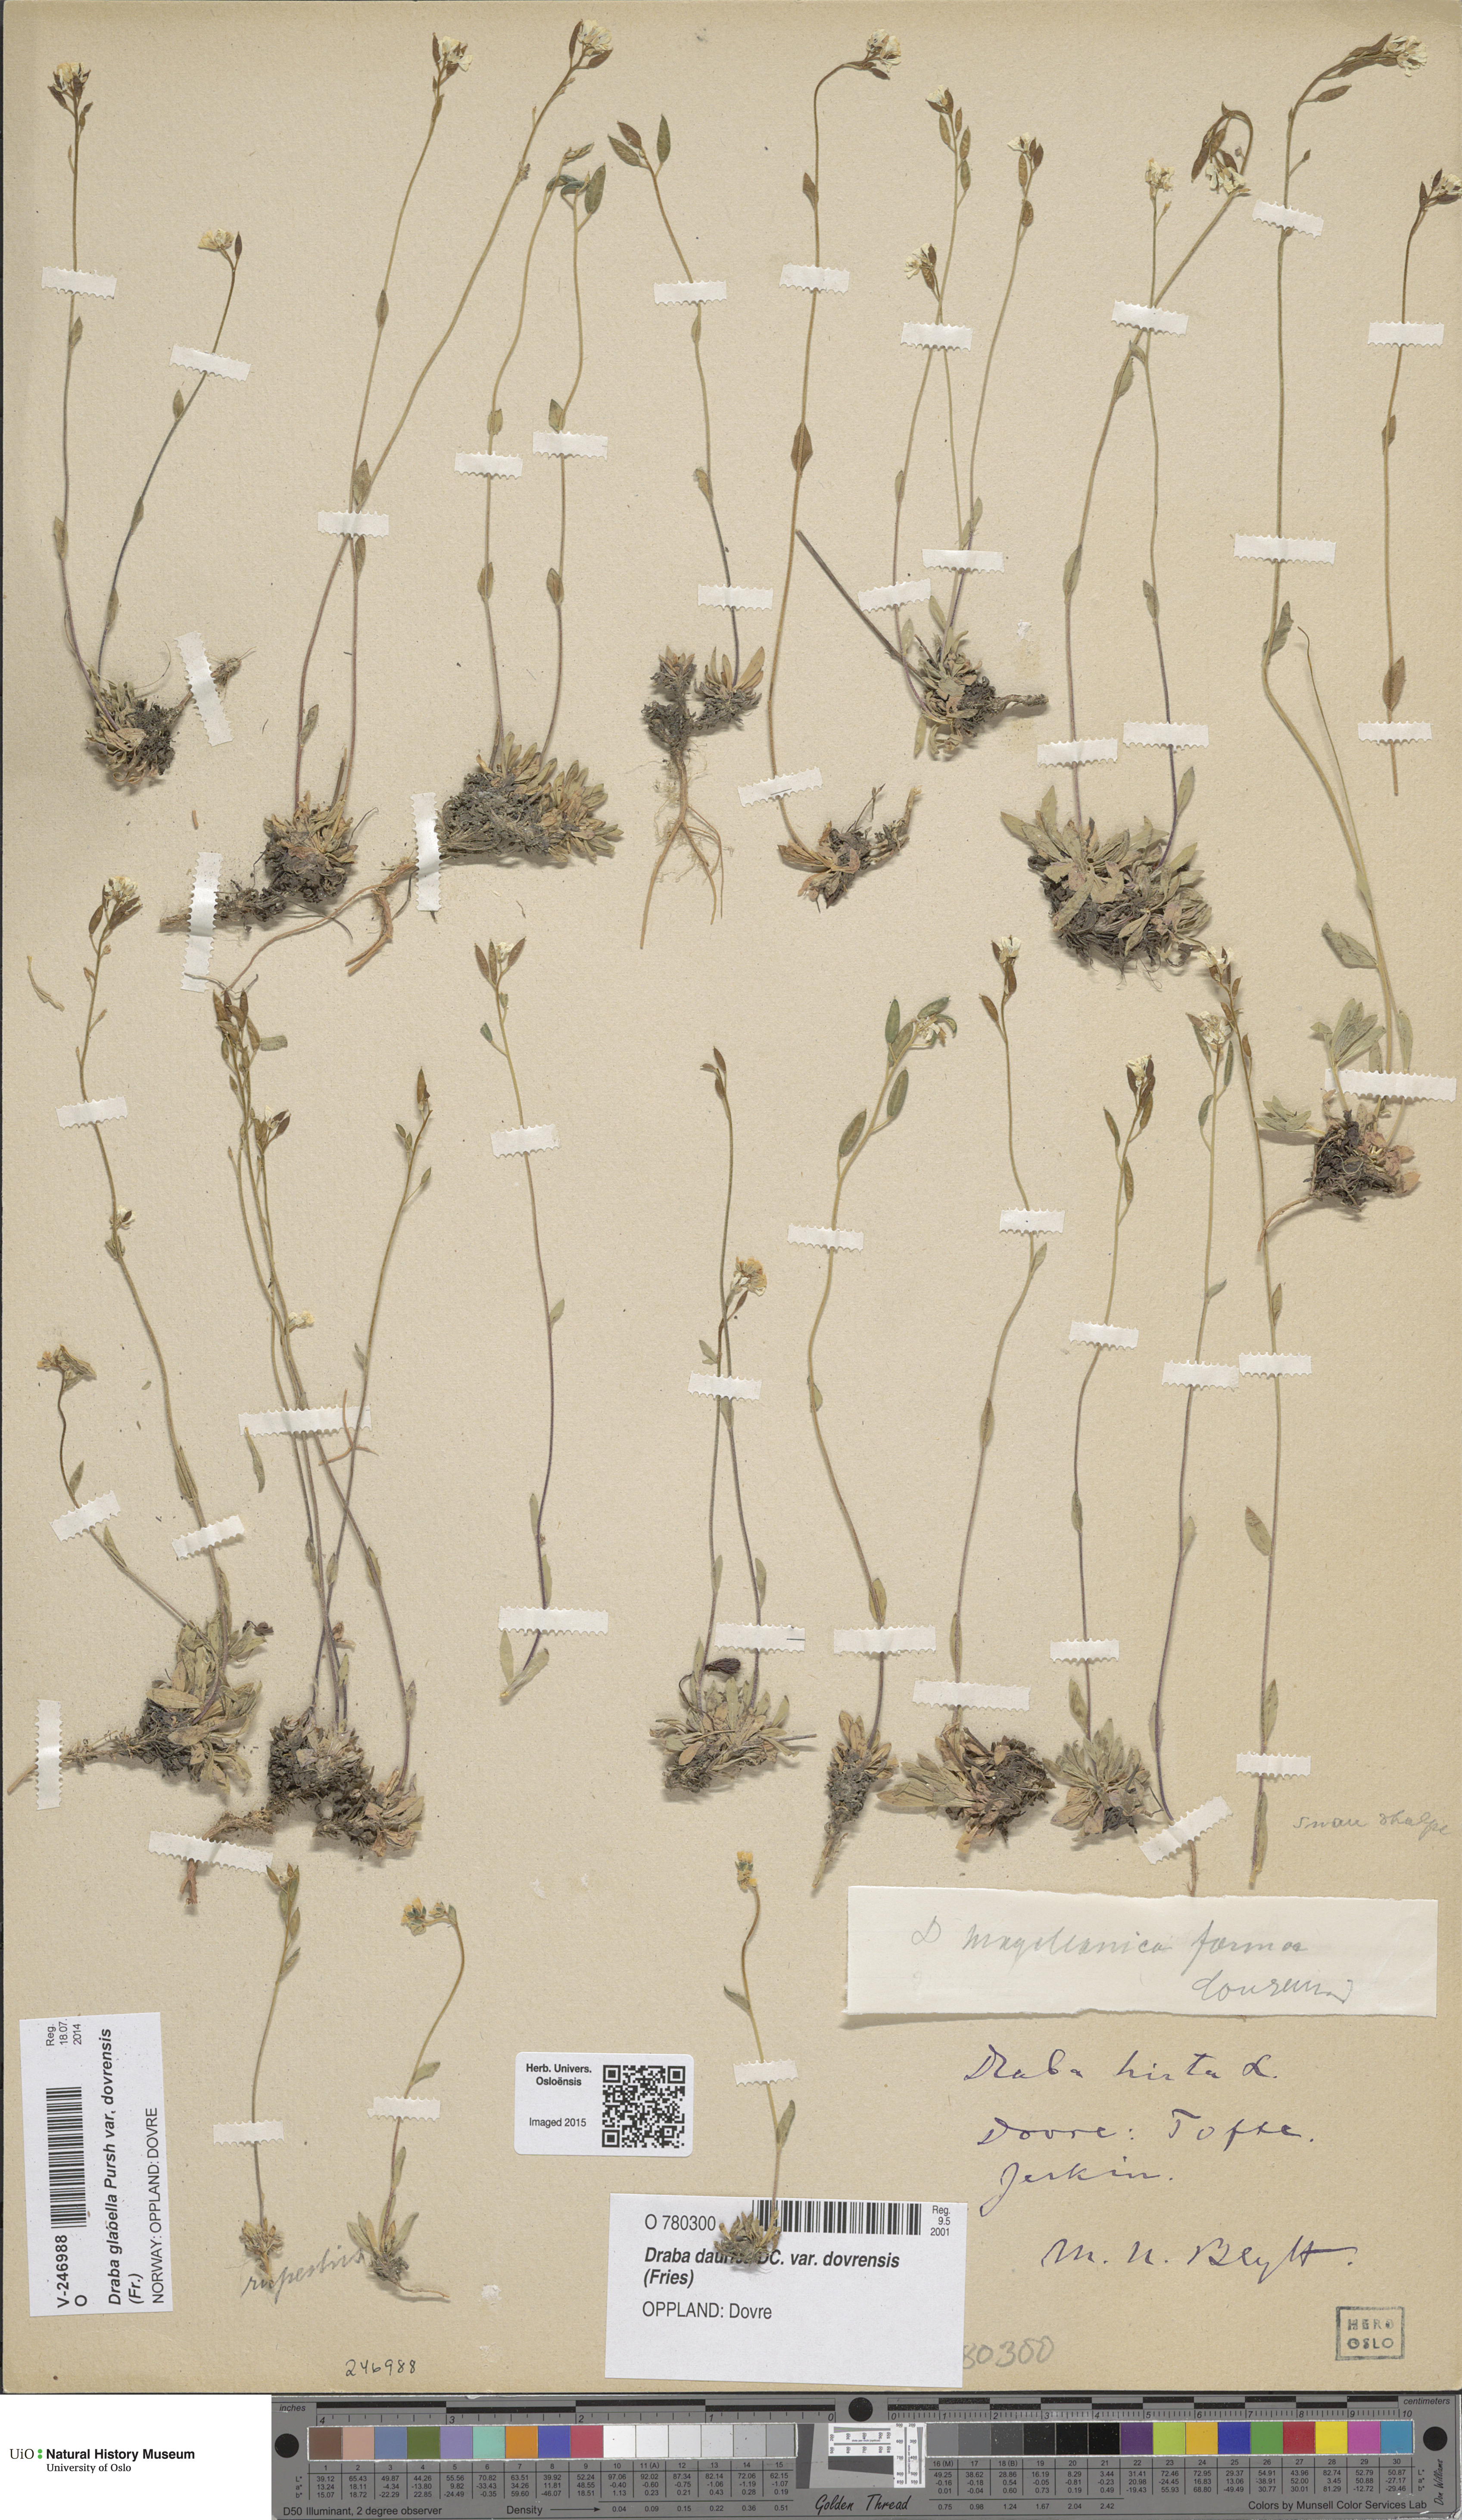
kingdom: Plantae
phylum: Tracheophyta
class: Magnoliopsida
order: Brassicales
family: Brassicaceae
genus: Draba
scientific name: Draba glabella
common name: Glaucous draba
